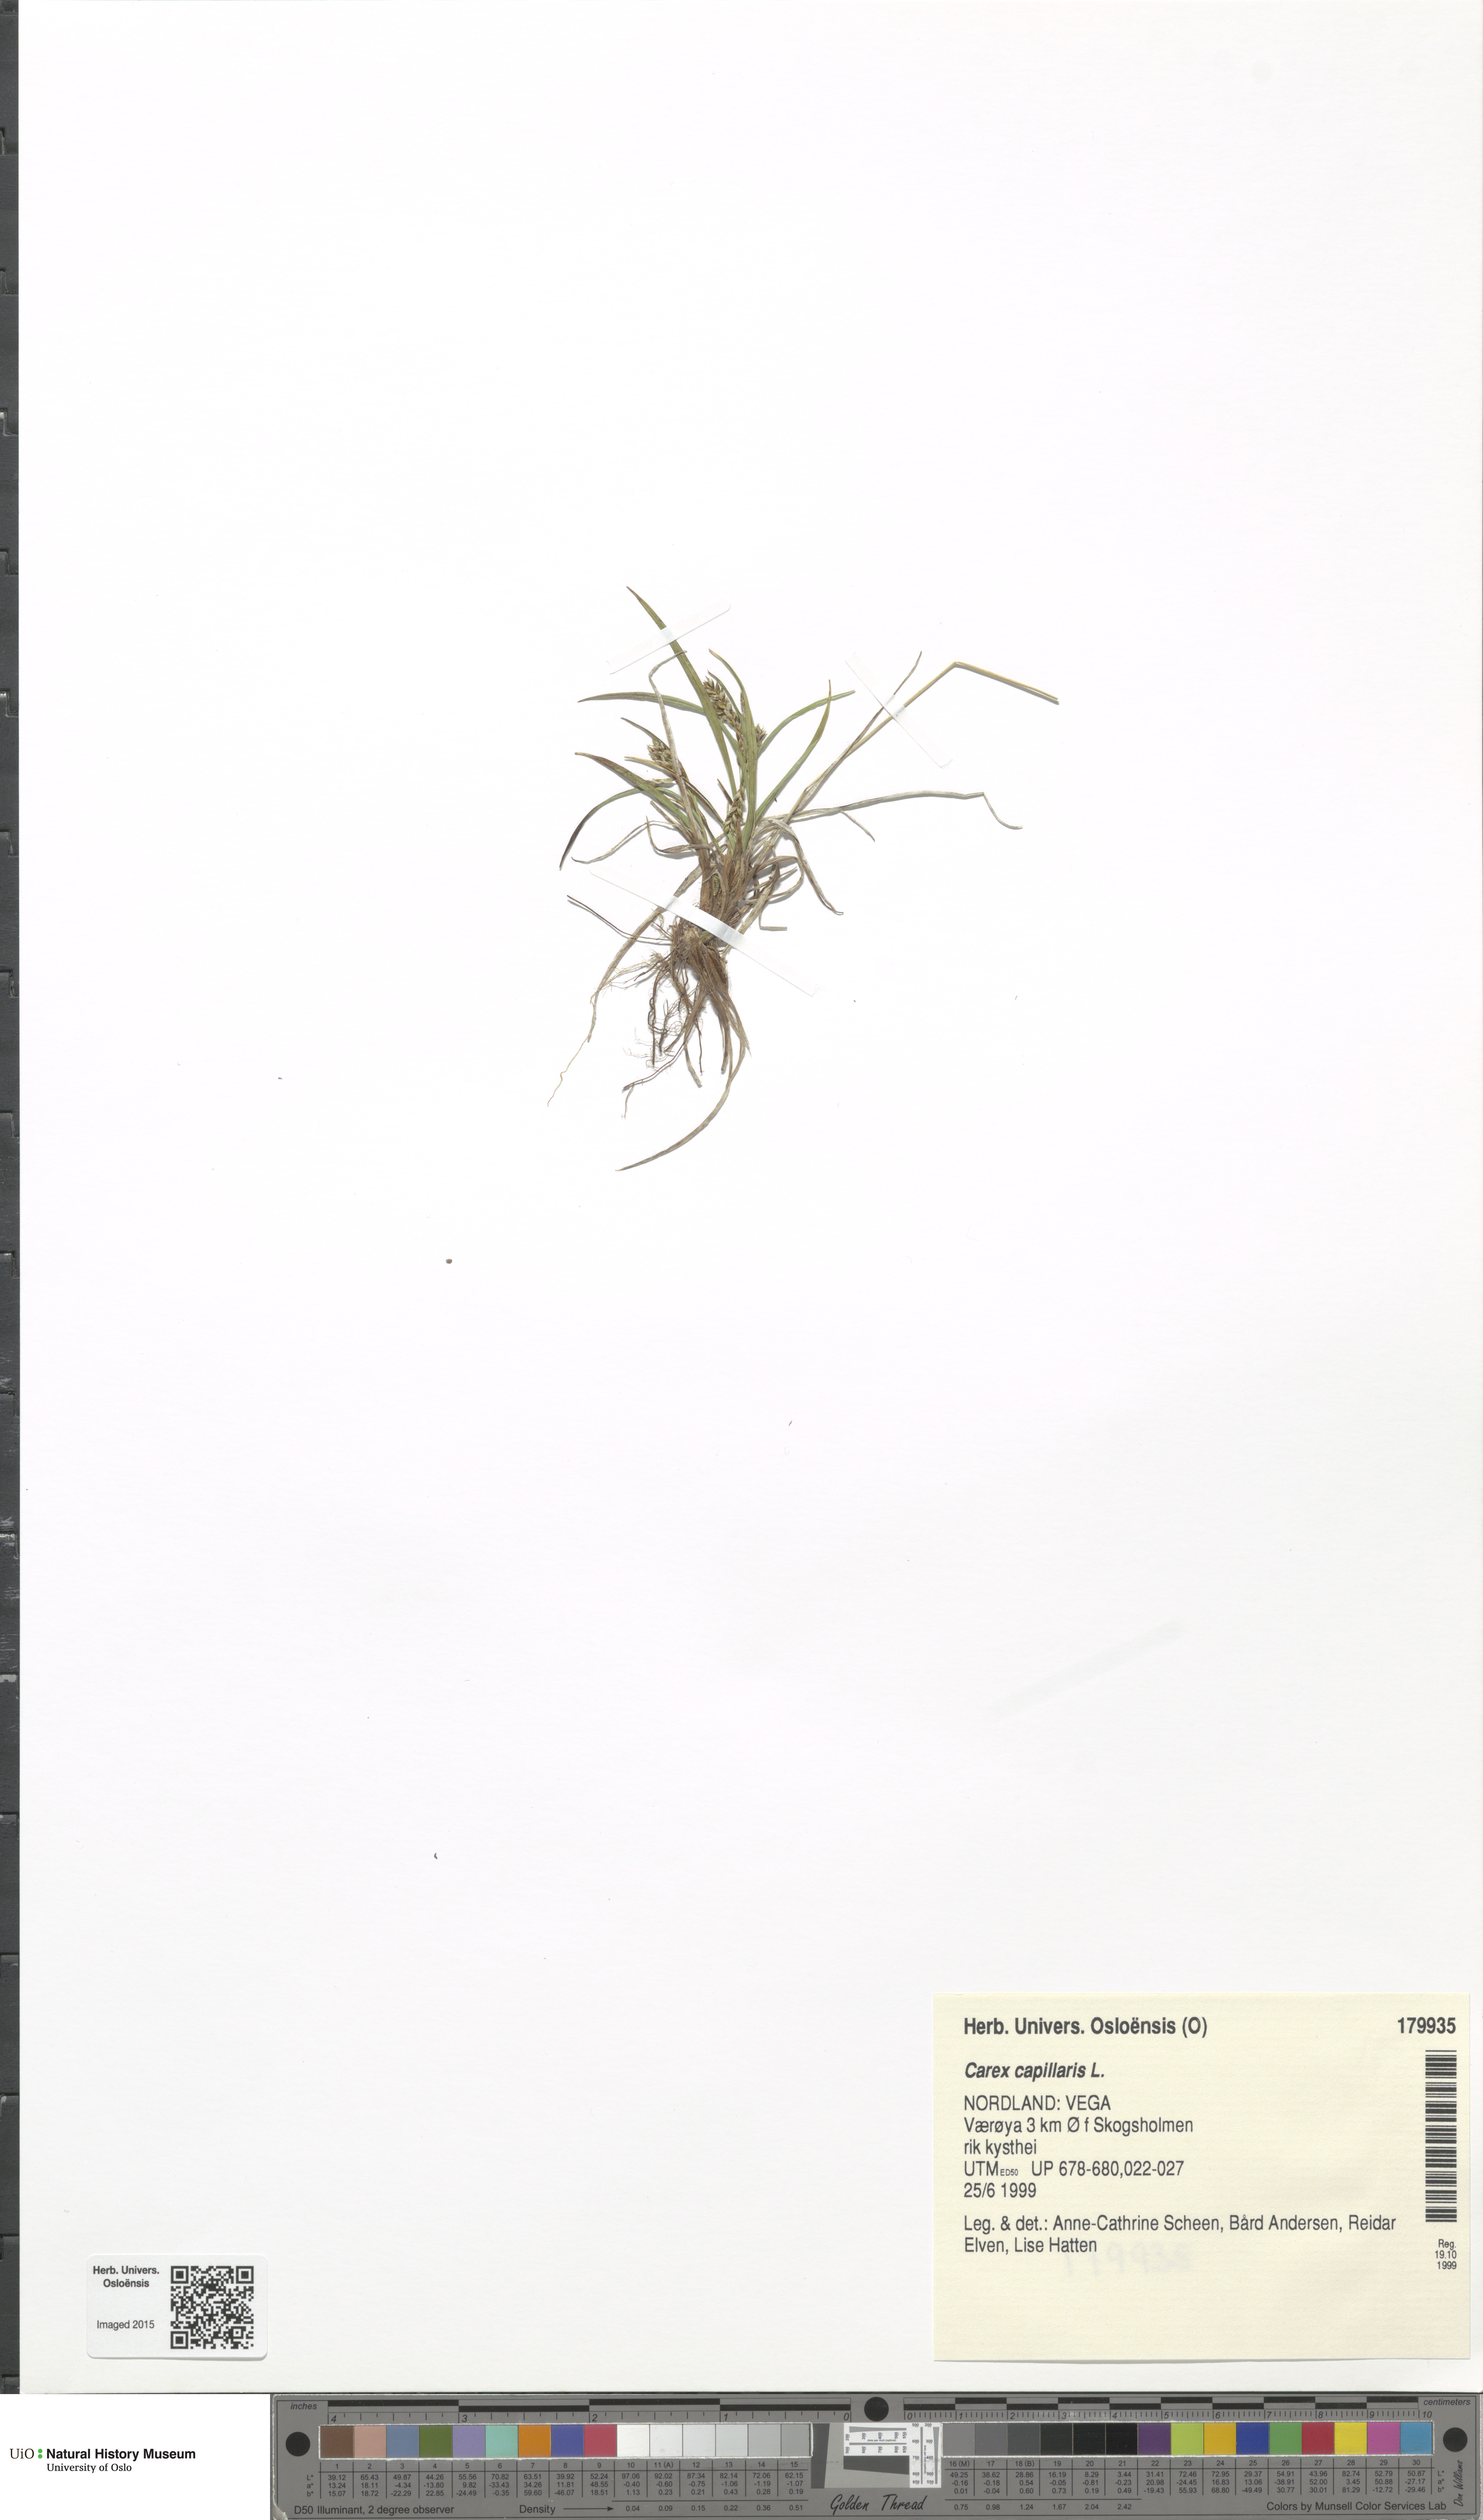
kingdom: Plantae
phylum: Tracheophyta
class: Liliopsida
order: Poales
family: Cyperaceae
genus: Carex
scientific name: Carex capillaris
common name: Hair sedge
